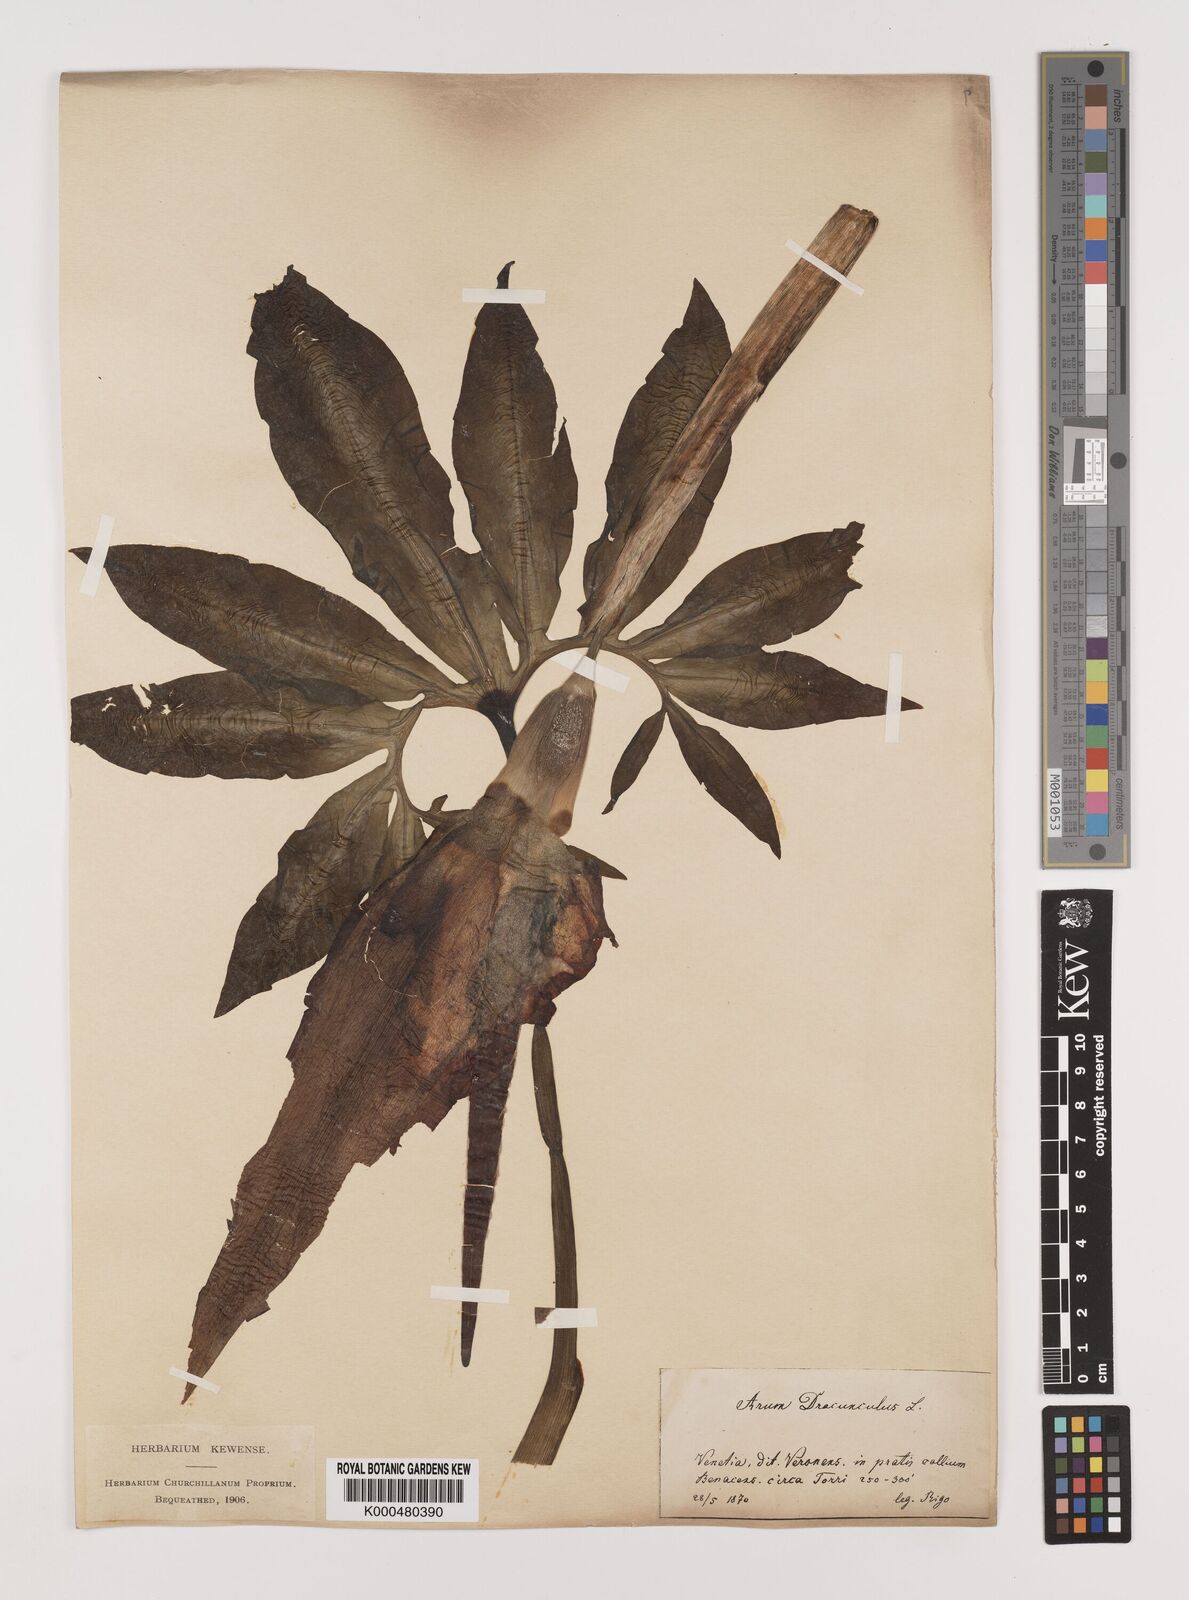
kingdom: Plantae
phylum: Tracheophyta
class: Liliopsida
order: Alismatales
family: Araceae
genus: Arum
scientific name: Arum
